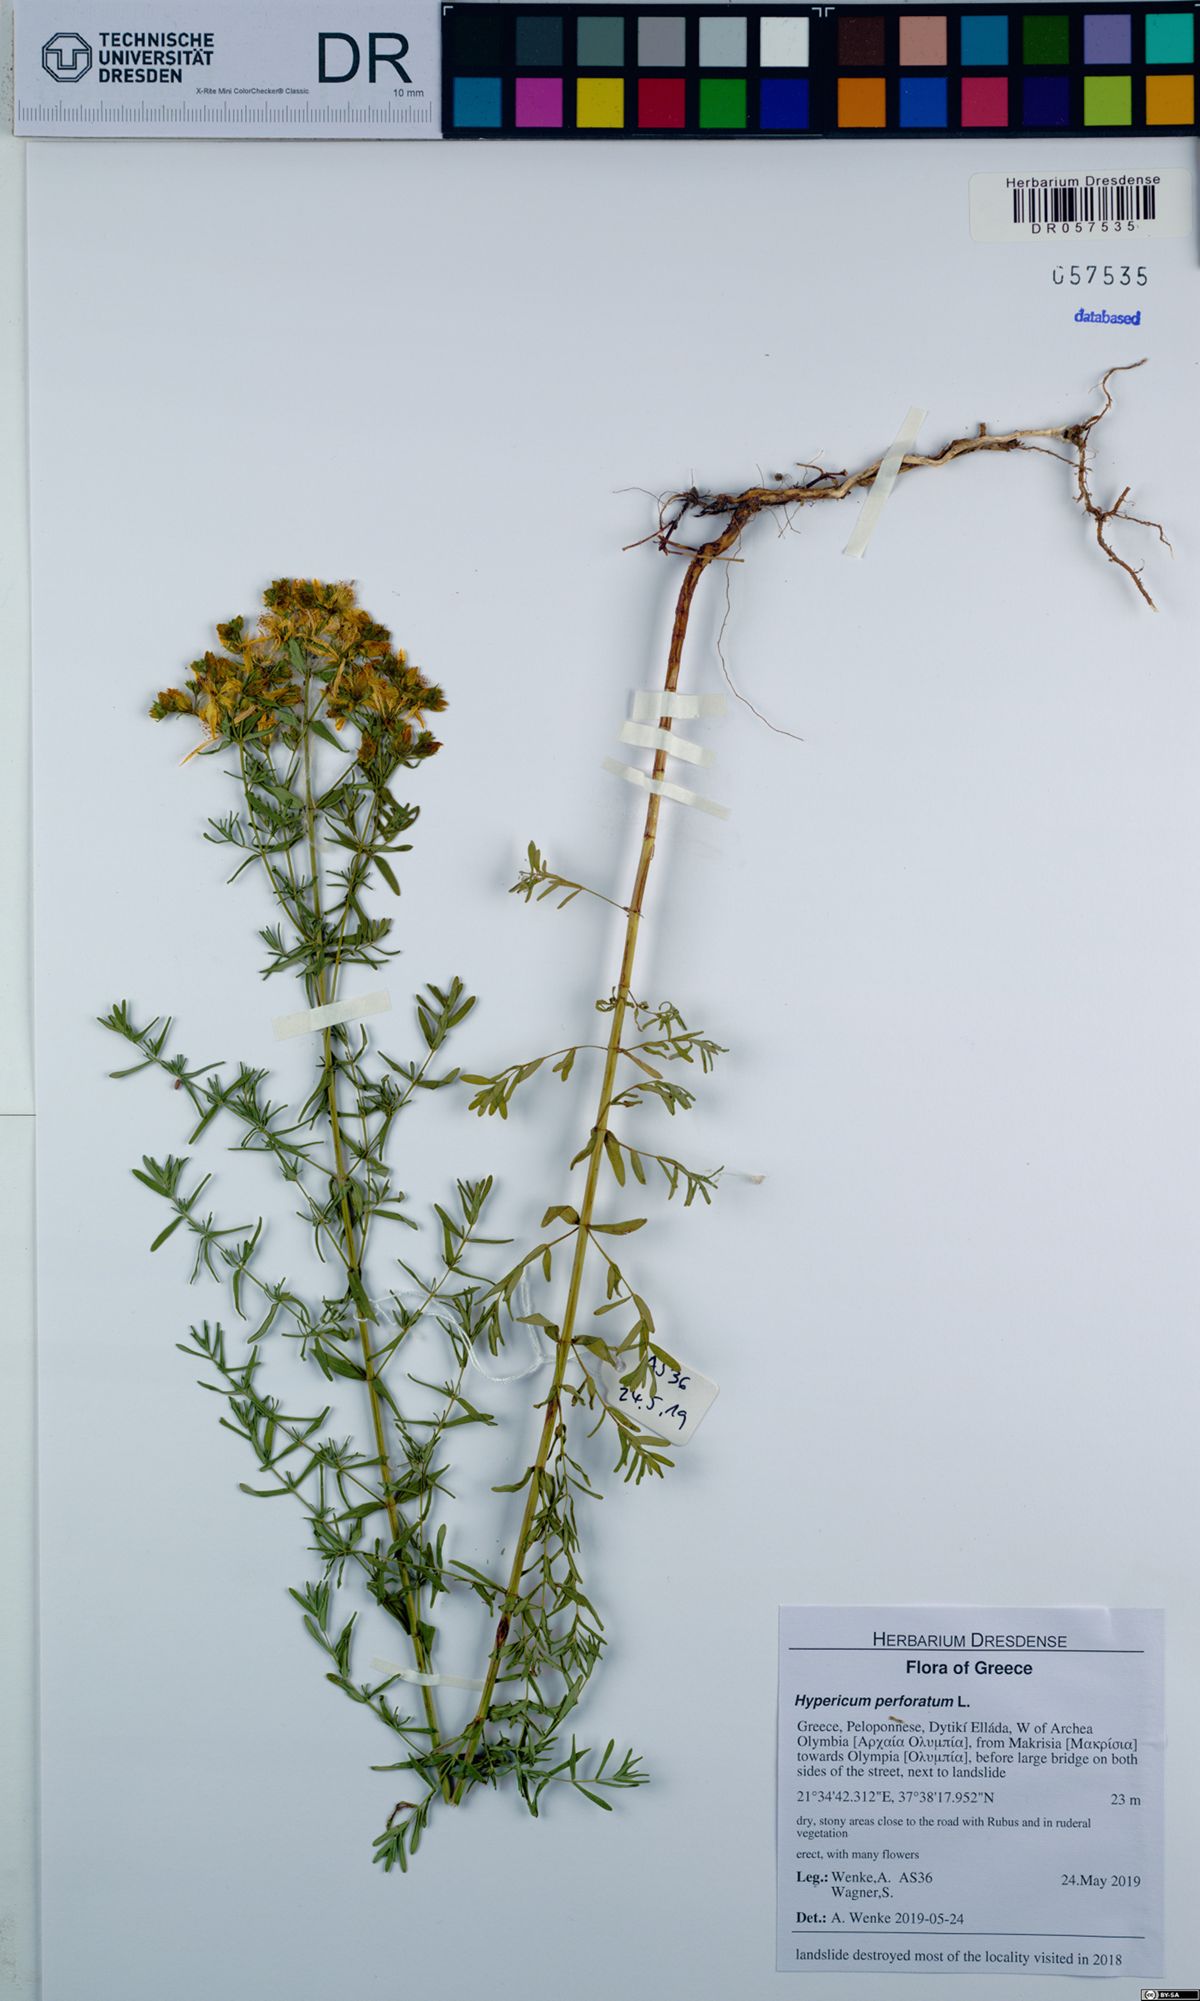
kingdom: Plantae
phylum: Tracheophyta
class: Magnoliopsida
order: Malpighiales
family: Hypericaceae
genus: Hypericum
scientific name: Hypericum perforatum
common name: Common st. johnswort
